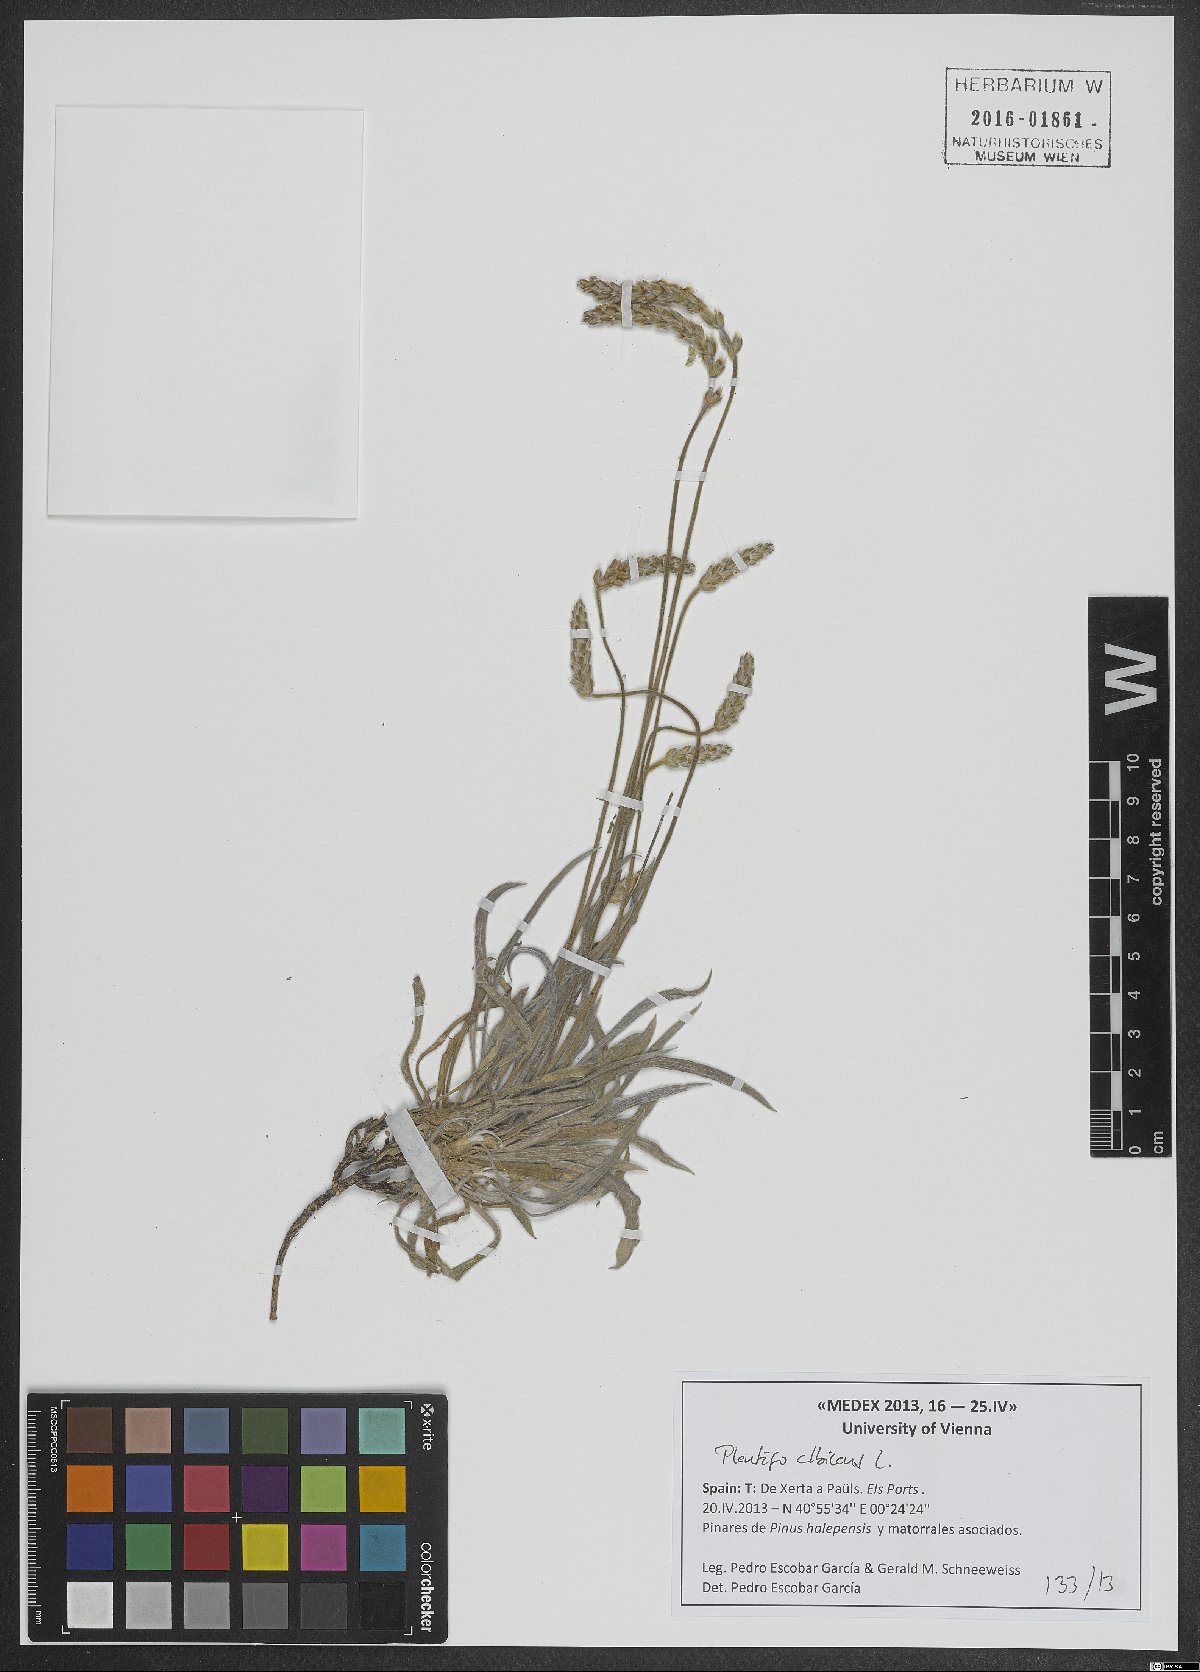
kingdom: Plantae
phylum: Tracheophyta
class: Magnoliopsida
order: Lamiales
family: Plantaginaceae
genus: Plantago
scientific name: Plantago albicans
